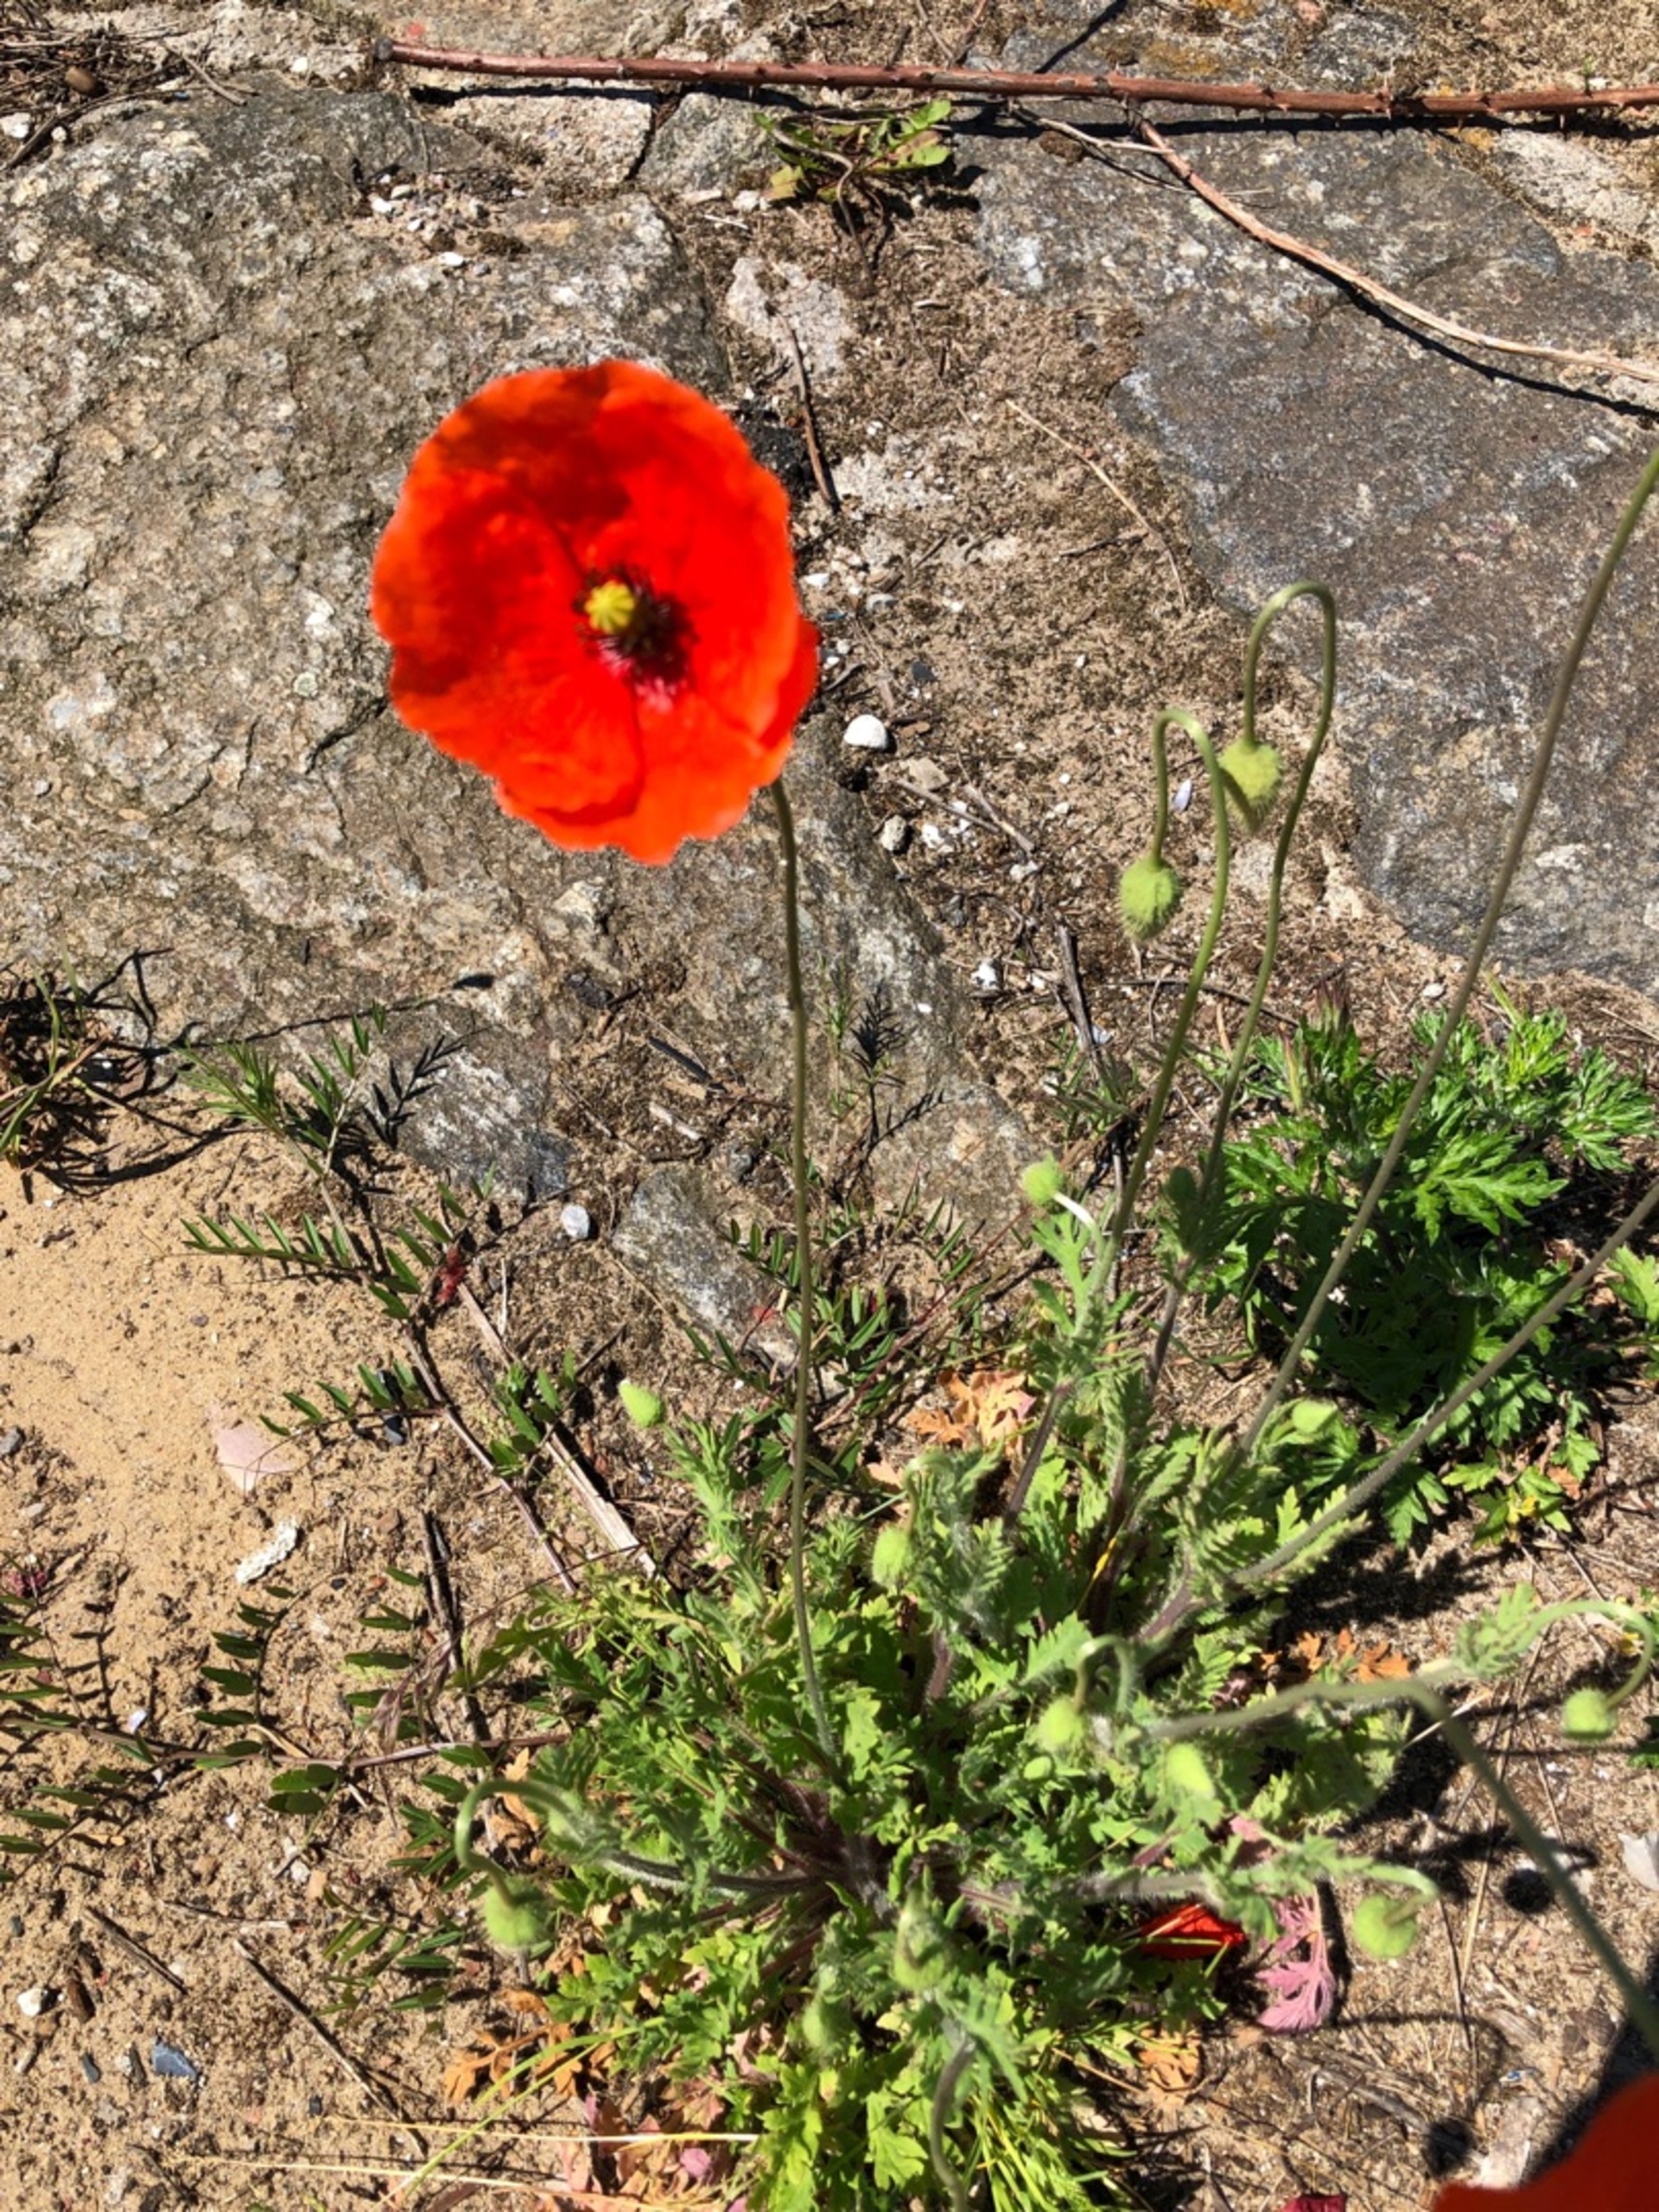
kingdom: Plantae
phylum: Tracheophyta
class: Magnoliopsida
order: Ranunculales
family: Papaveraceae
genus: Papaver
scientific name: Papaver dubium
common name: Gærde-valmue
